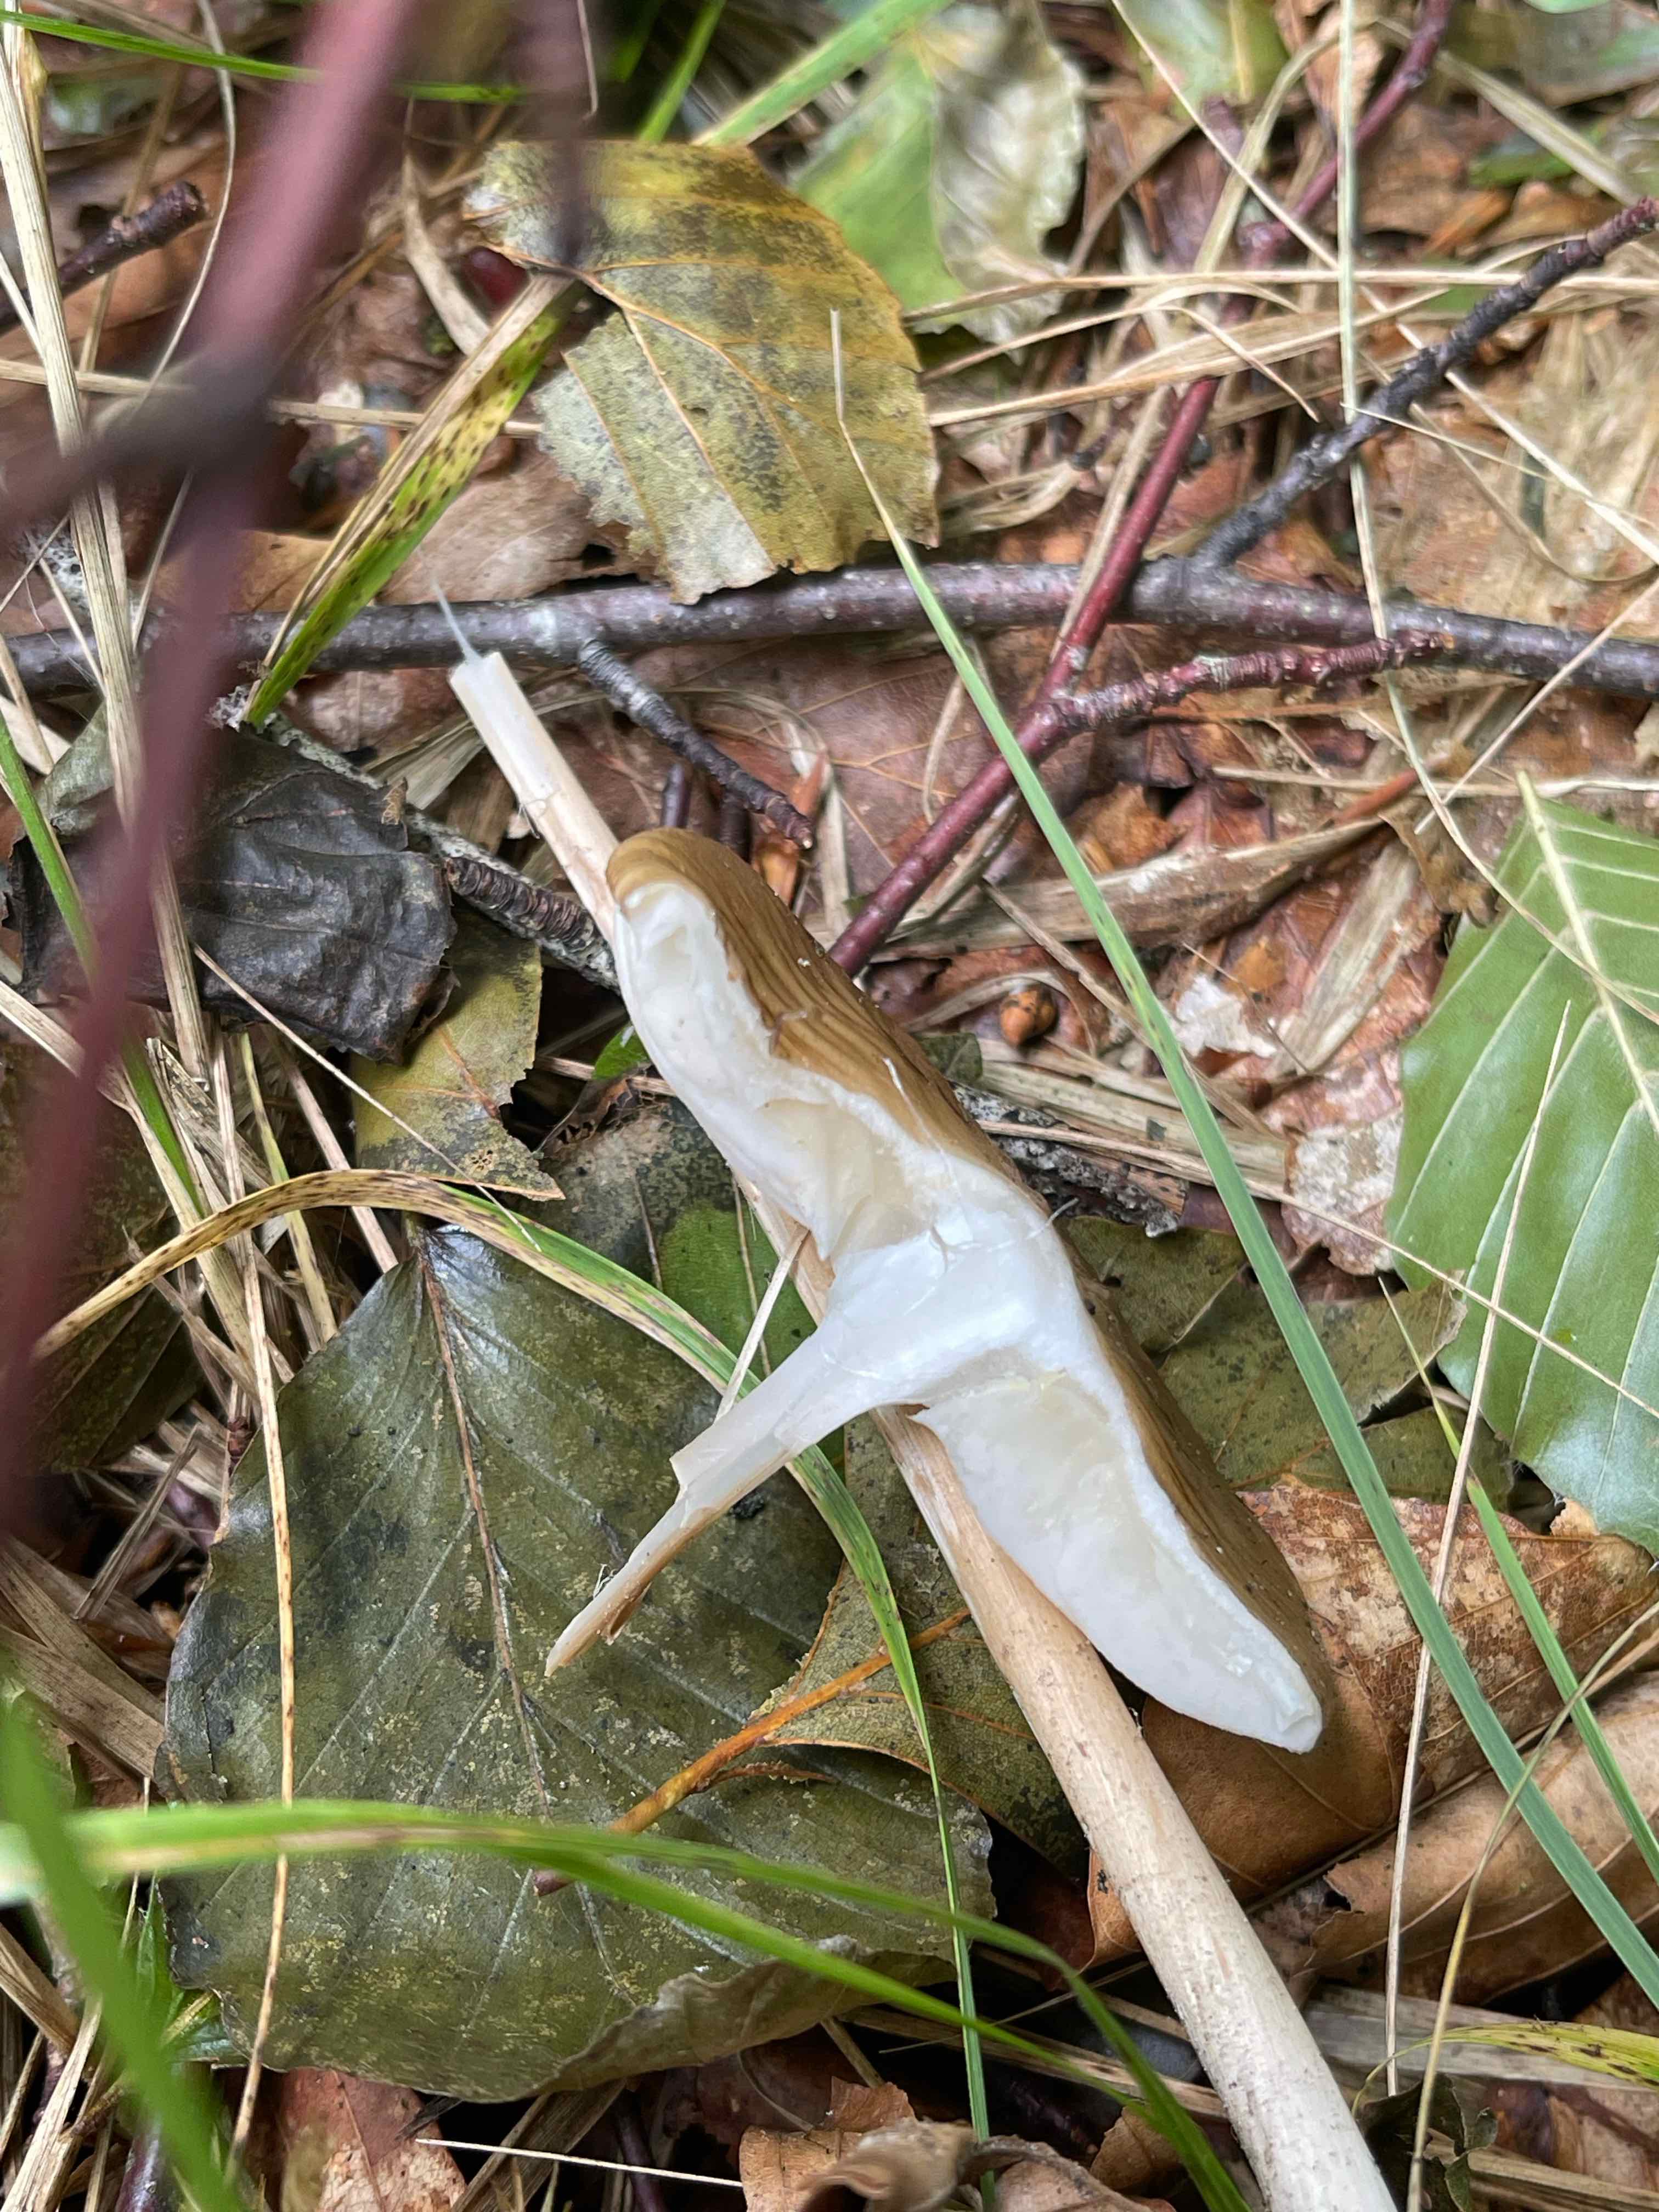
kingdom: Fungi
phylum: Basidiomycota
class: Agaricomycetes
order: Agaricales
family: Physalacriaceae
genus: Hymenopellis
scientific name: Hymenopellis radicata
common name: almindelig pælerodshat
